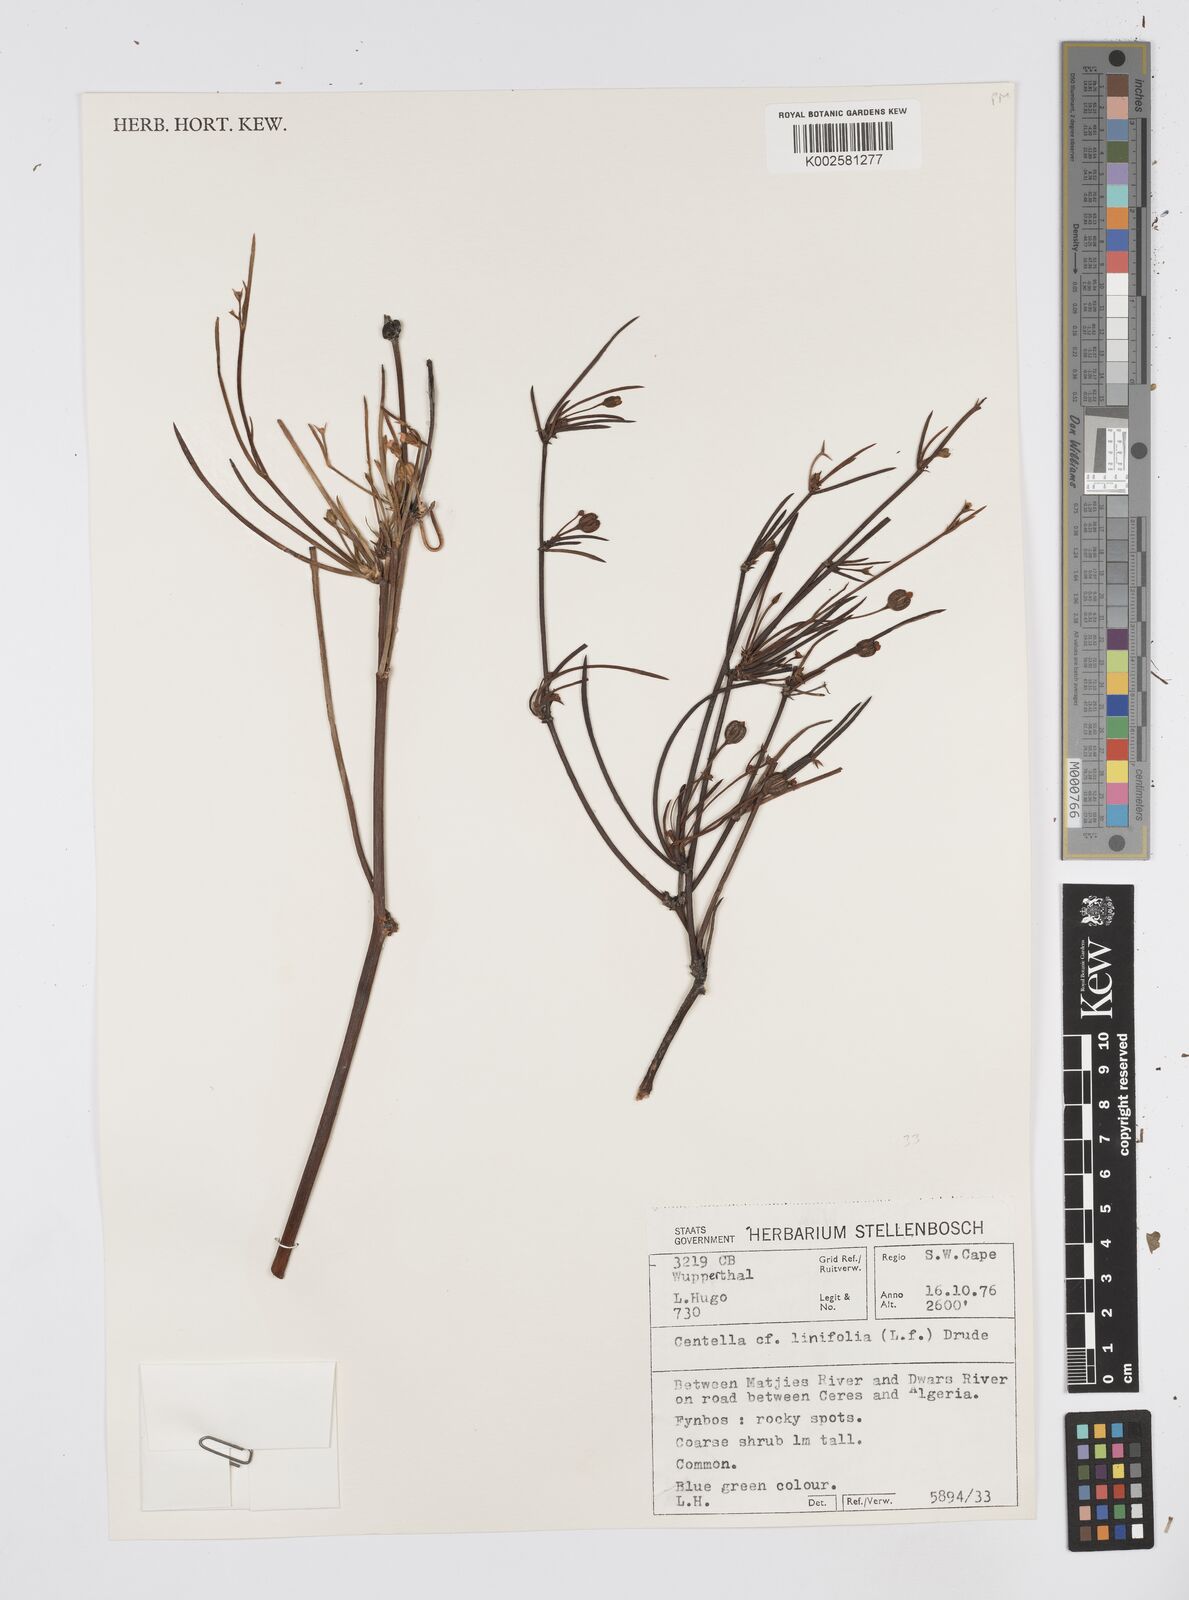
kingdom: Plantae
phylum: Tracheophyta
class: Magnoliopsida
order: Apiales
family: Apiaceae
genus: Centella
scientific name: Centella linifolia
